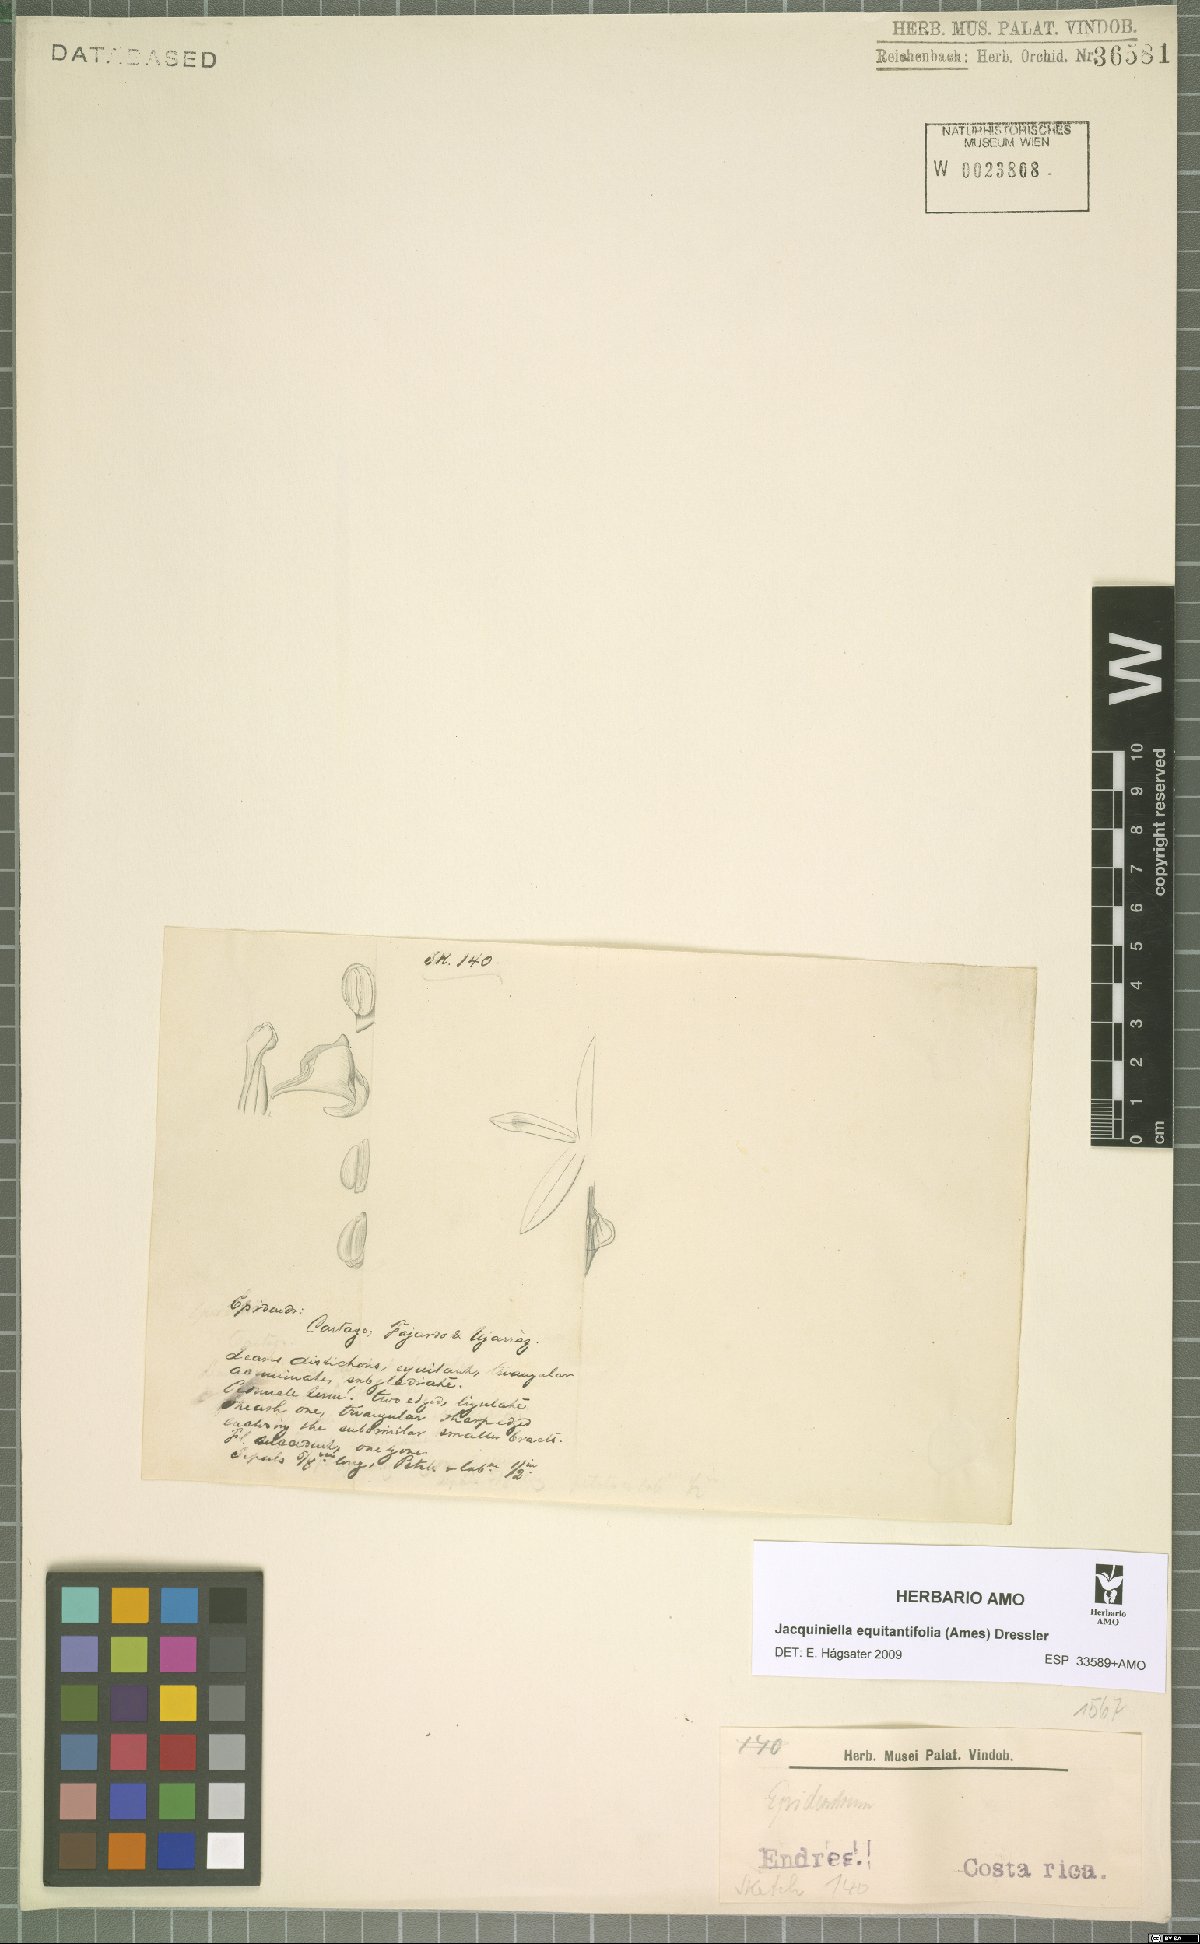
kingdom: Plantae
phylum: Tracheophyta
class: Liliopsida
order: Asparagales
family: Orchidaceae
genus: Jacquiniella
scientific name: Jacquiniella equitantifolia
